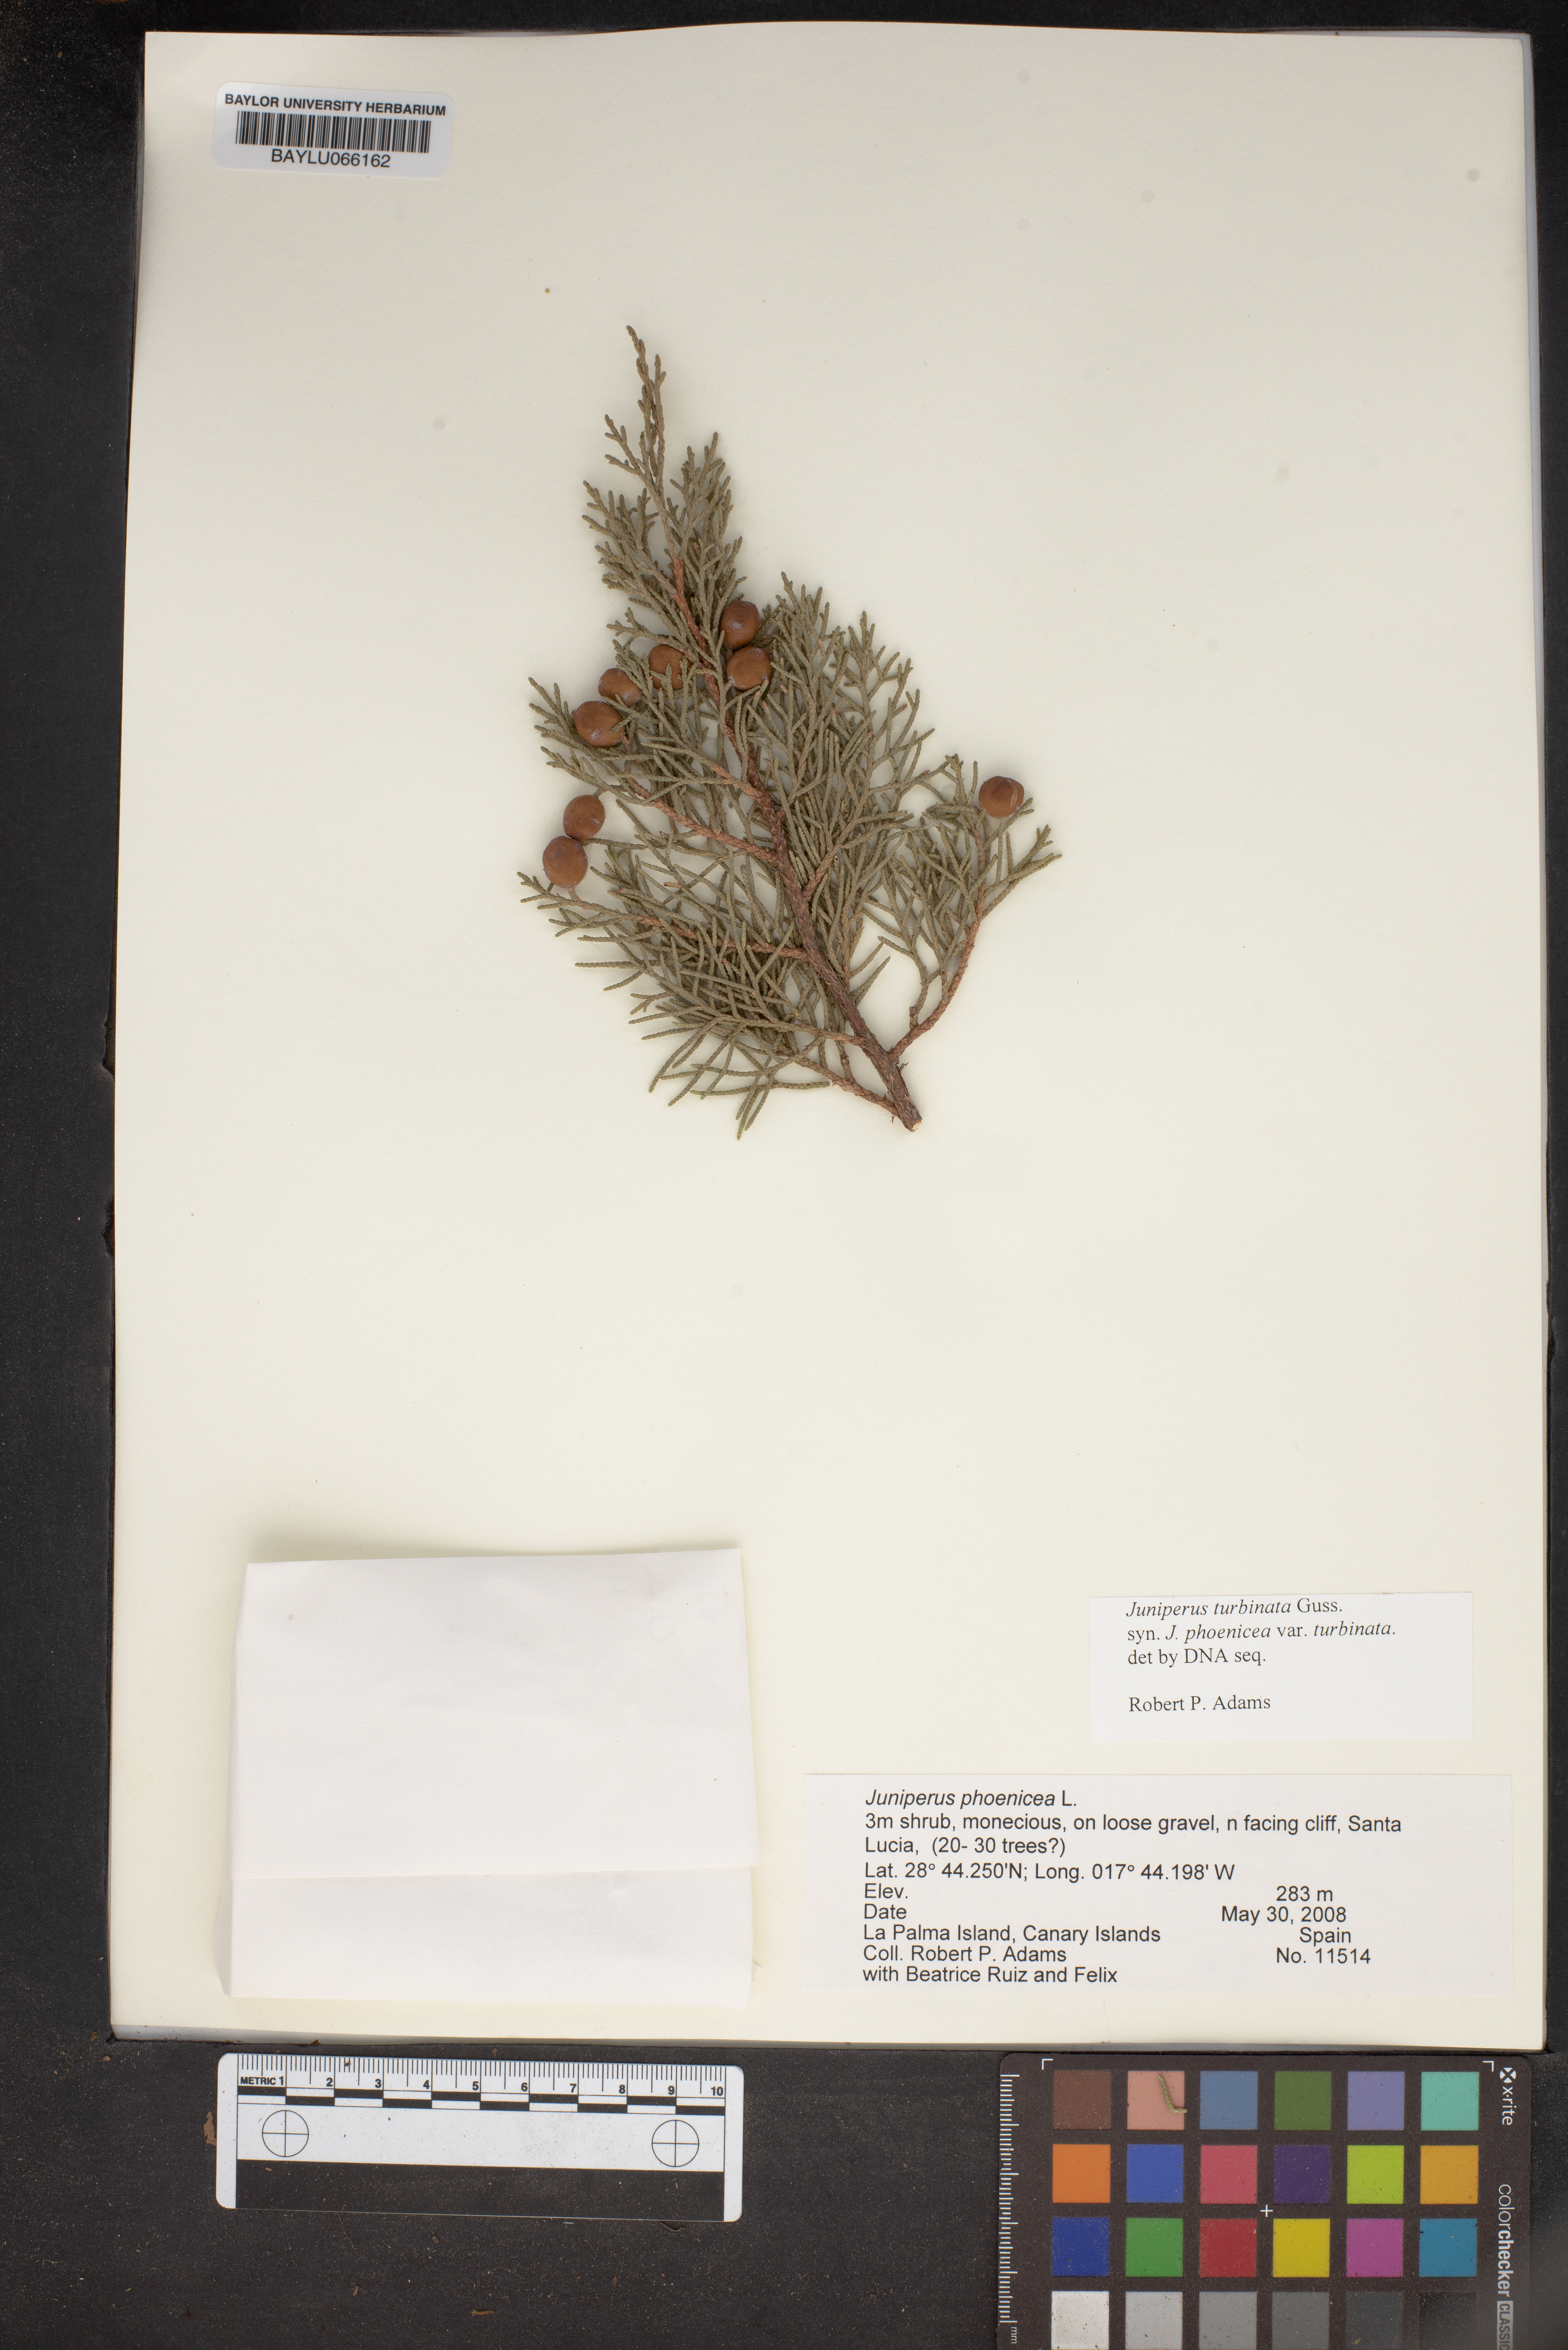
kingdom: Plantae
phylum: Tracheophyta
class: Pinopsida
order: Pinales
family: Cupressaceae
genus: Juniperus
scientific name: Juniperus phoenicea
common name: Phoenician juniper
